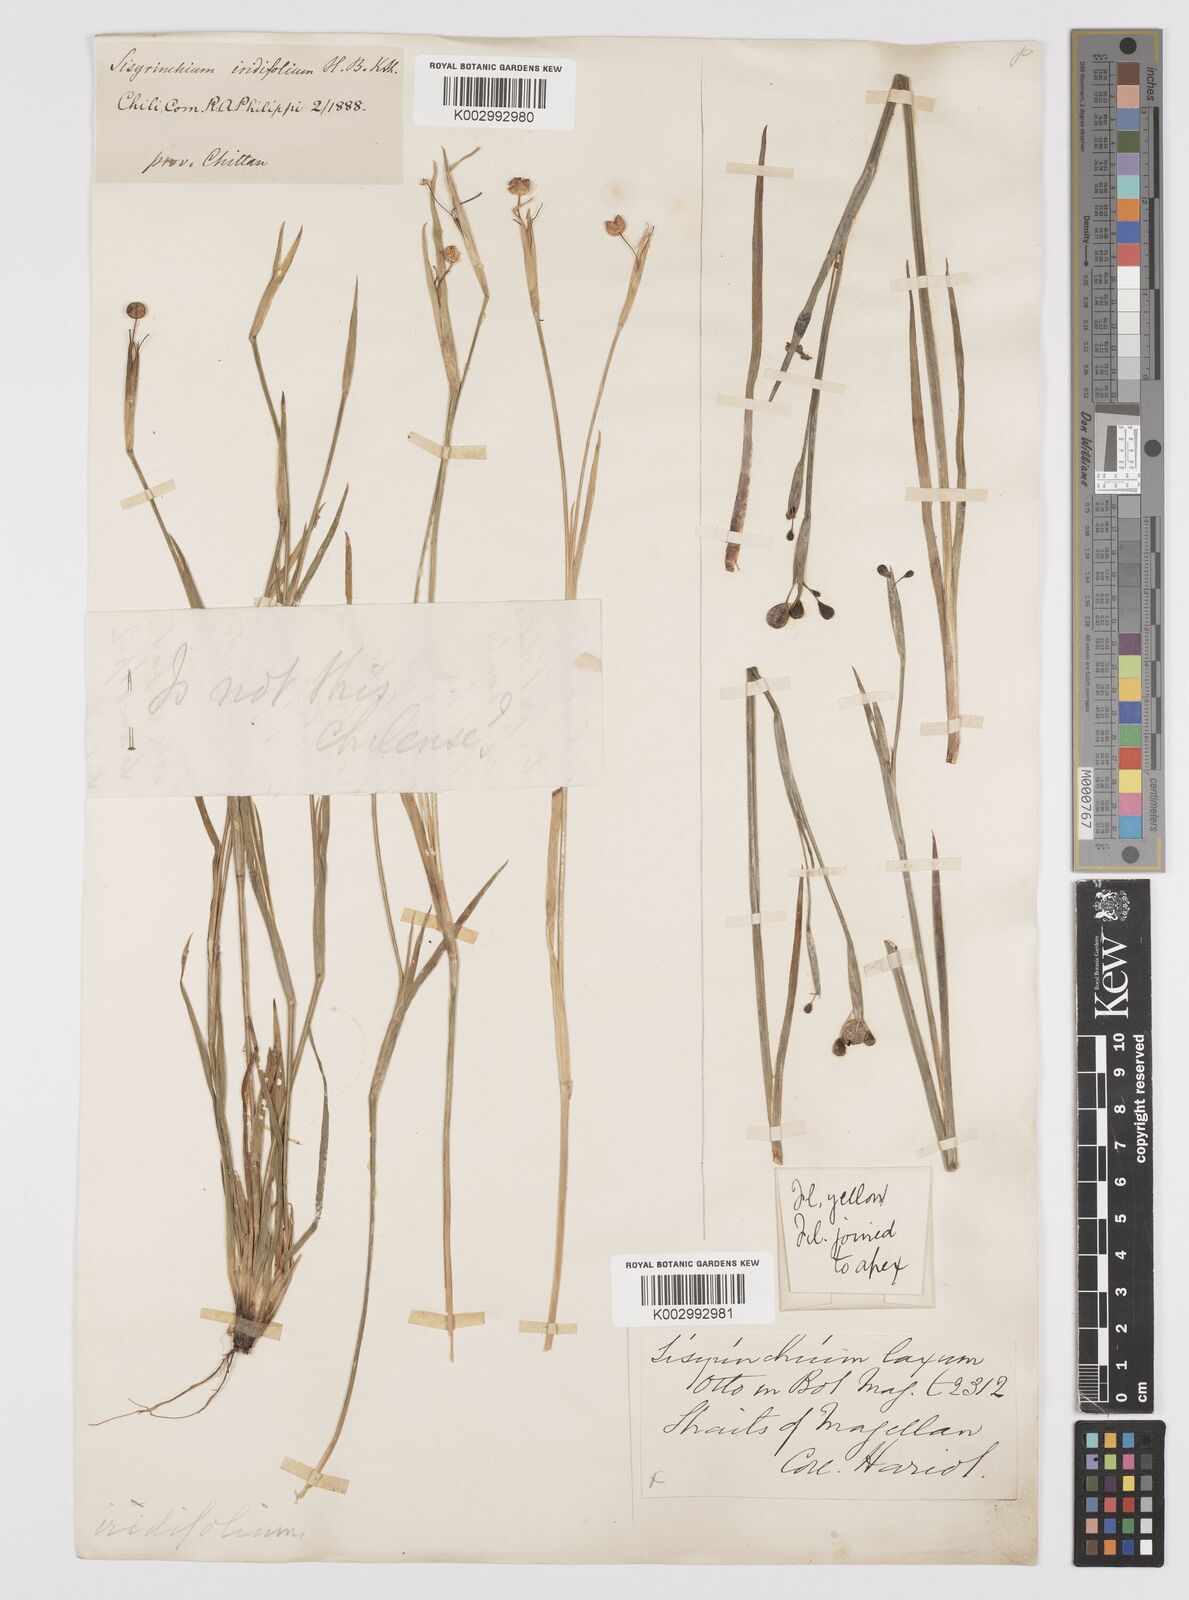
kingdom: Plantae
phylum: Tracheophyta
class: Liliopsida
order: Asparagales
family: Iridaceae
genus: Sisyrinchium
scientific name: Sisyrinchium laxum
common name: Veined yellow-eyed-grass
